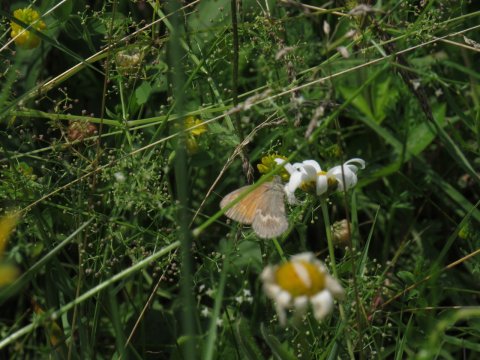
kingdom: Animalia
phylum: Arthropoda
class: Insecta
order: Lepidoptera
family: Nymphalidae
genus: Coenonympha
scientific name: Coenonympha tullia
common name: Large Heath
